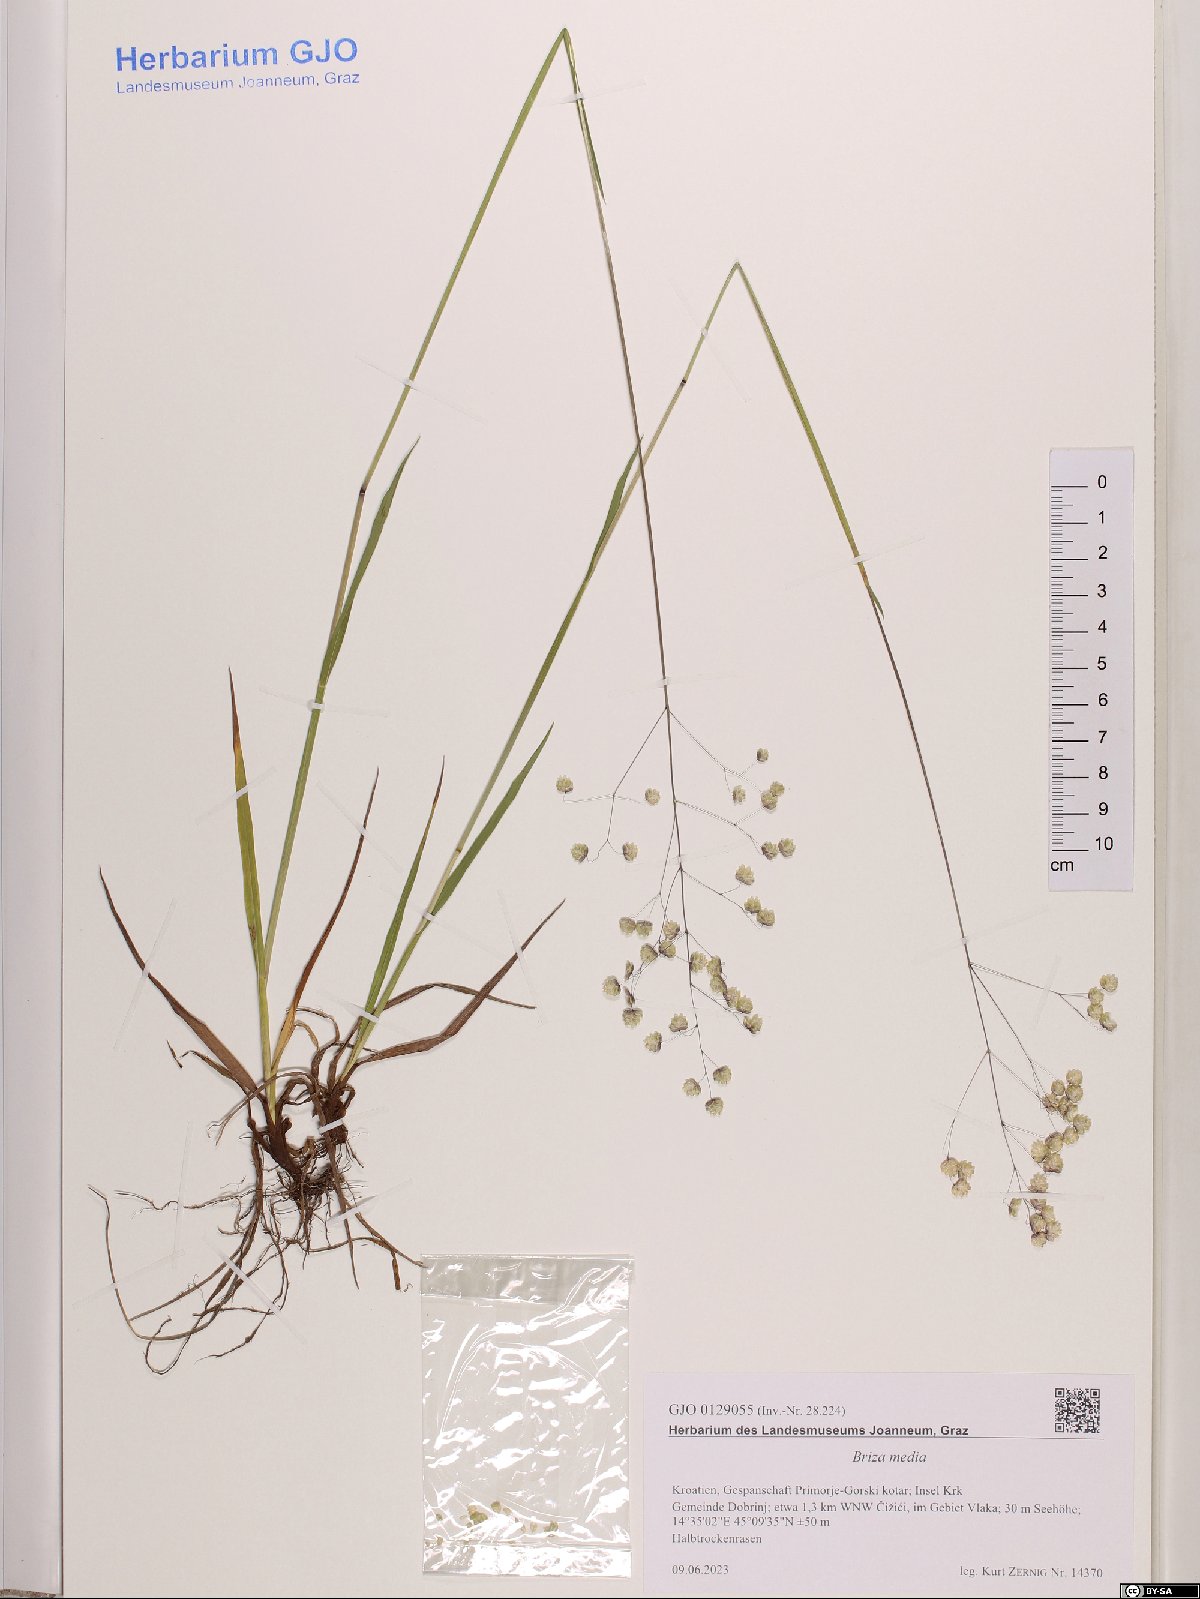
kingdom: Plantae
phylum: Tracheophyta
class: Liliopsida
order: Poales
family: Poaceae
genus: Briza
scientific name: Briza media
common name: Quaking grass
